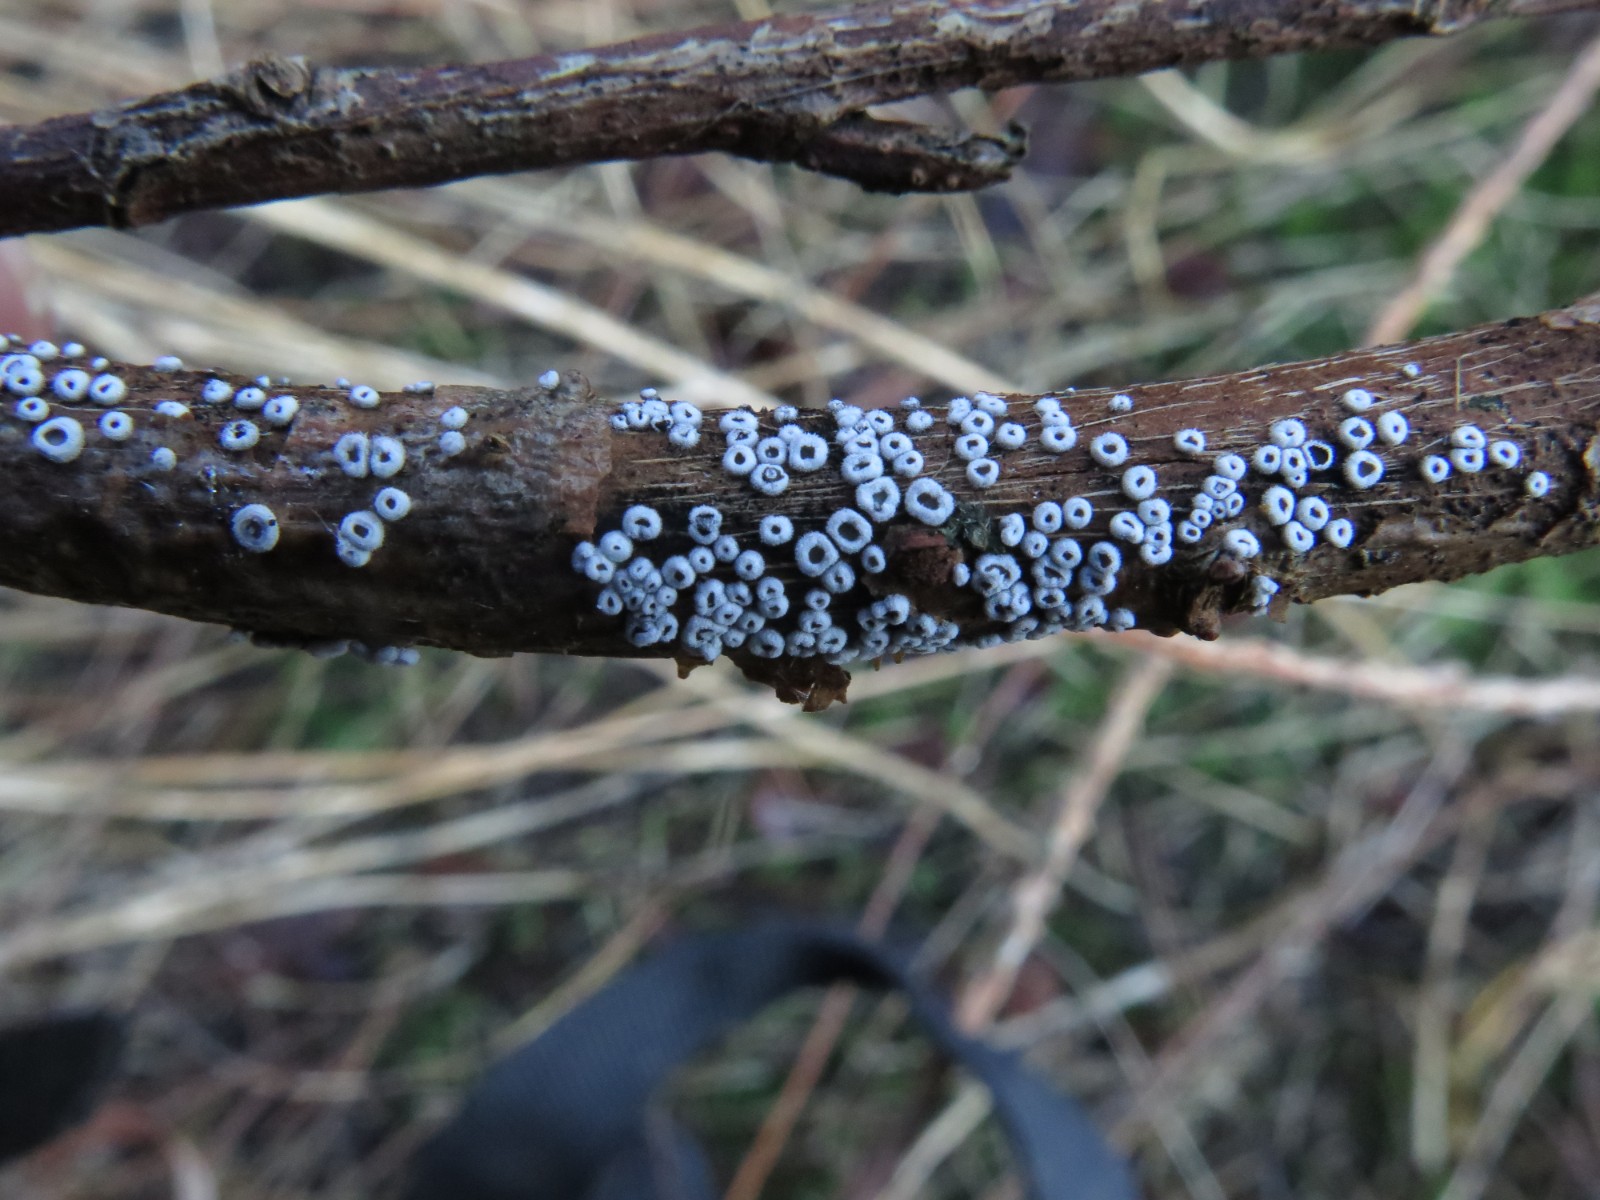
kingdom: Fungi
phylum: Basidiomycota
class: Agaricomycetes
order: Agaricales
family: Niaceae
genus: Lachnella
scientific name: Lachnella alboviolascens
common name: grå frynserede
